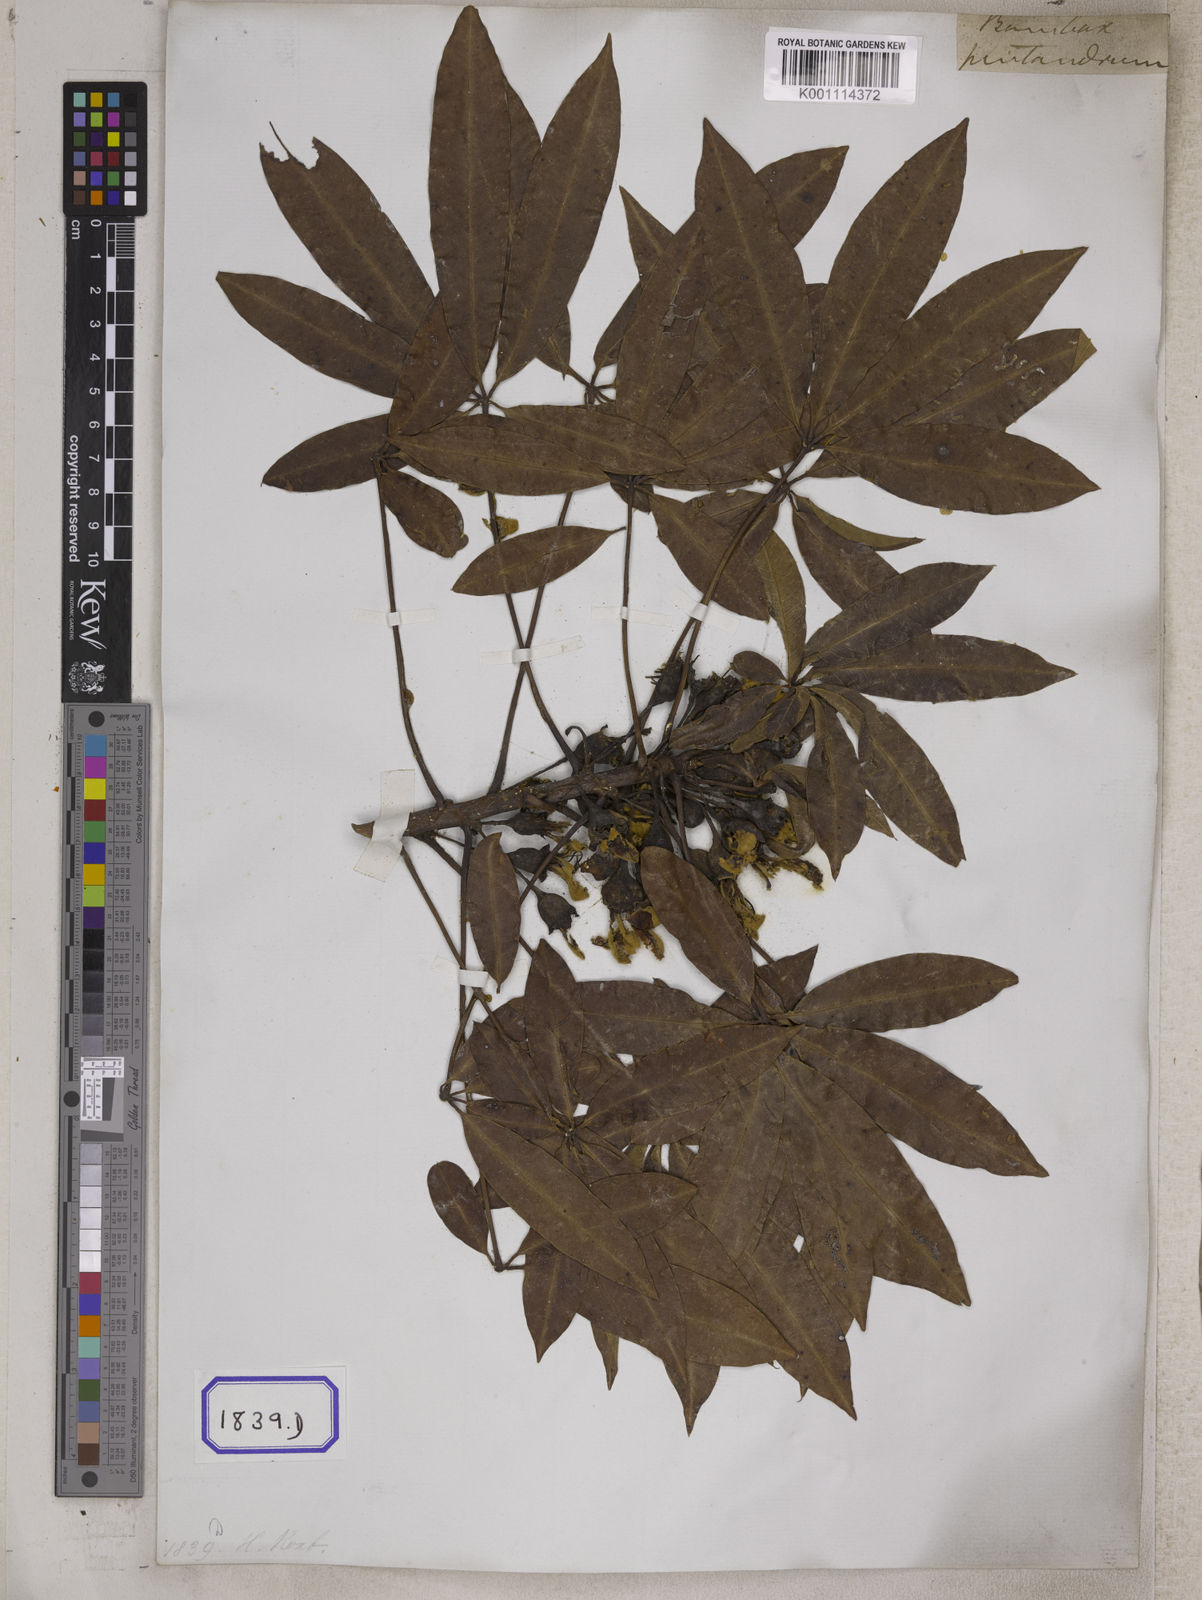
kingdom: Plantae
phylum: Tracheophyta
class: Magnoliopsida
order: Malvales
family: Malvaceae
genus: Ceiba
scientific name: Ceiba pentandra
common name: Kapok
